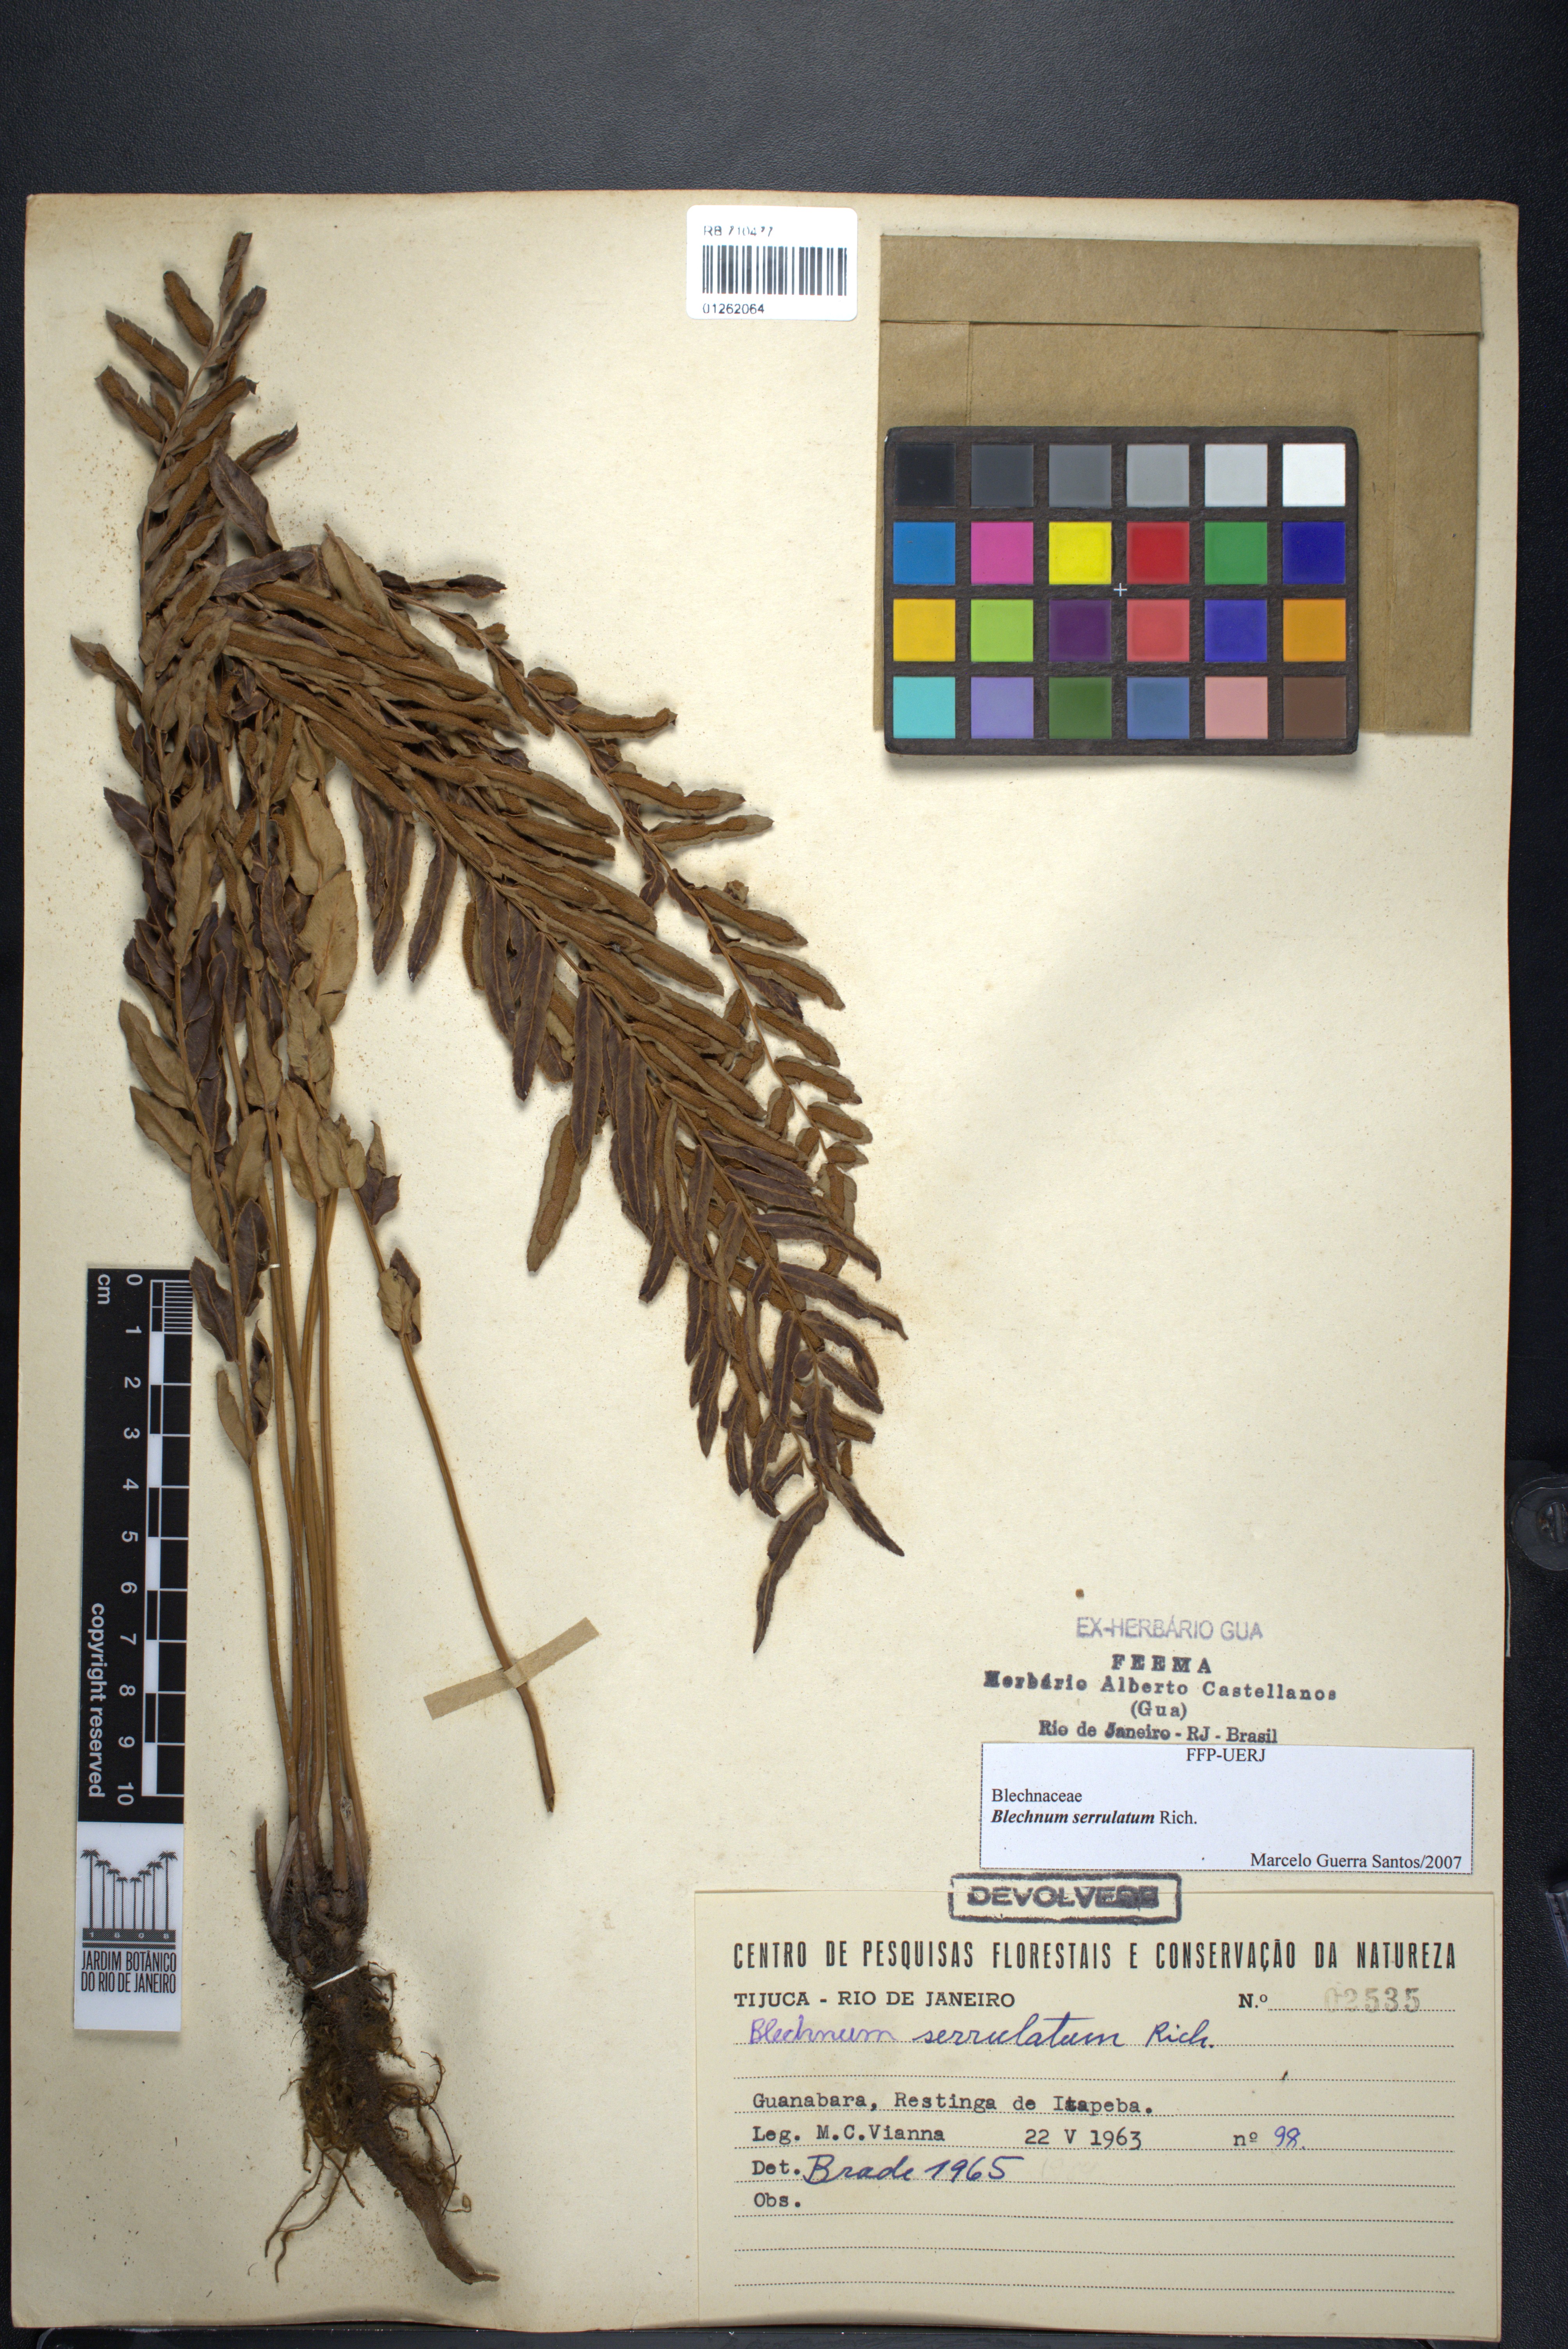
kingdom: Plantae
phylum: Tracheophyta
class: Polypodiopsida
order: Polypodiales
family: Blechnaceae
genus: Telmatoblechnum
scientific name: Telmatoblechnum serrulatum
